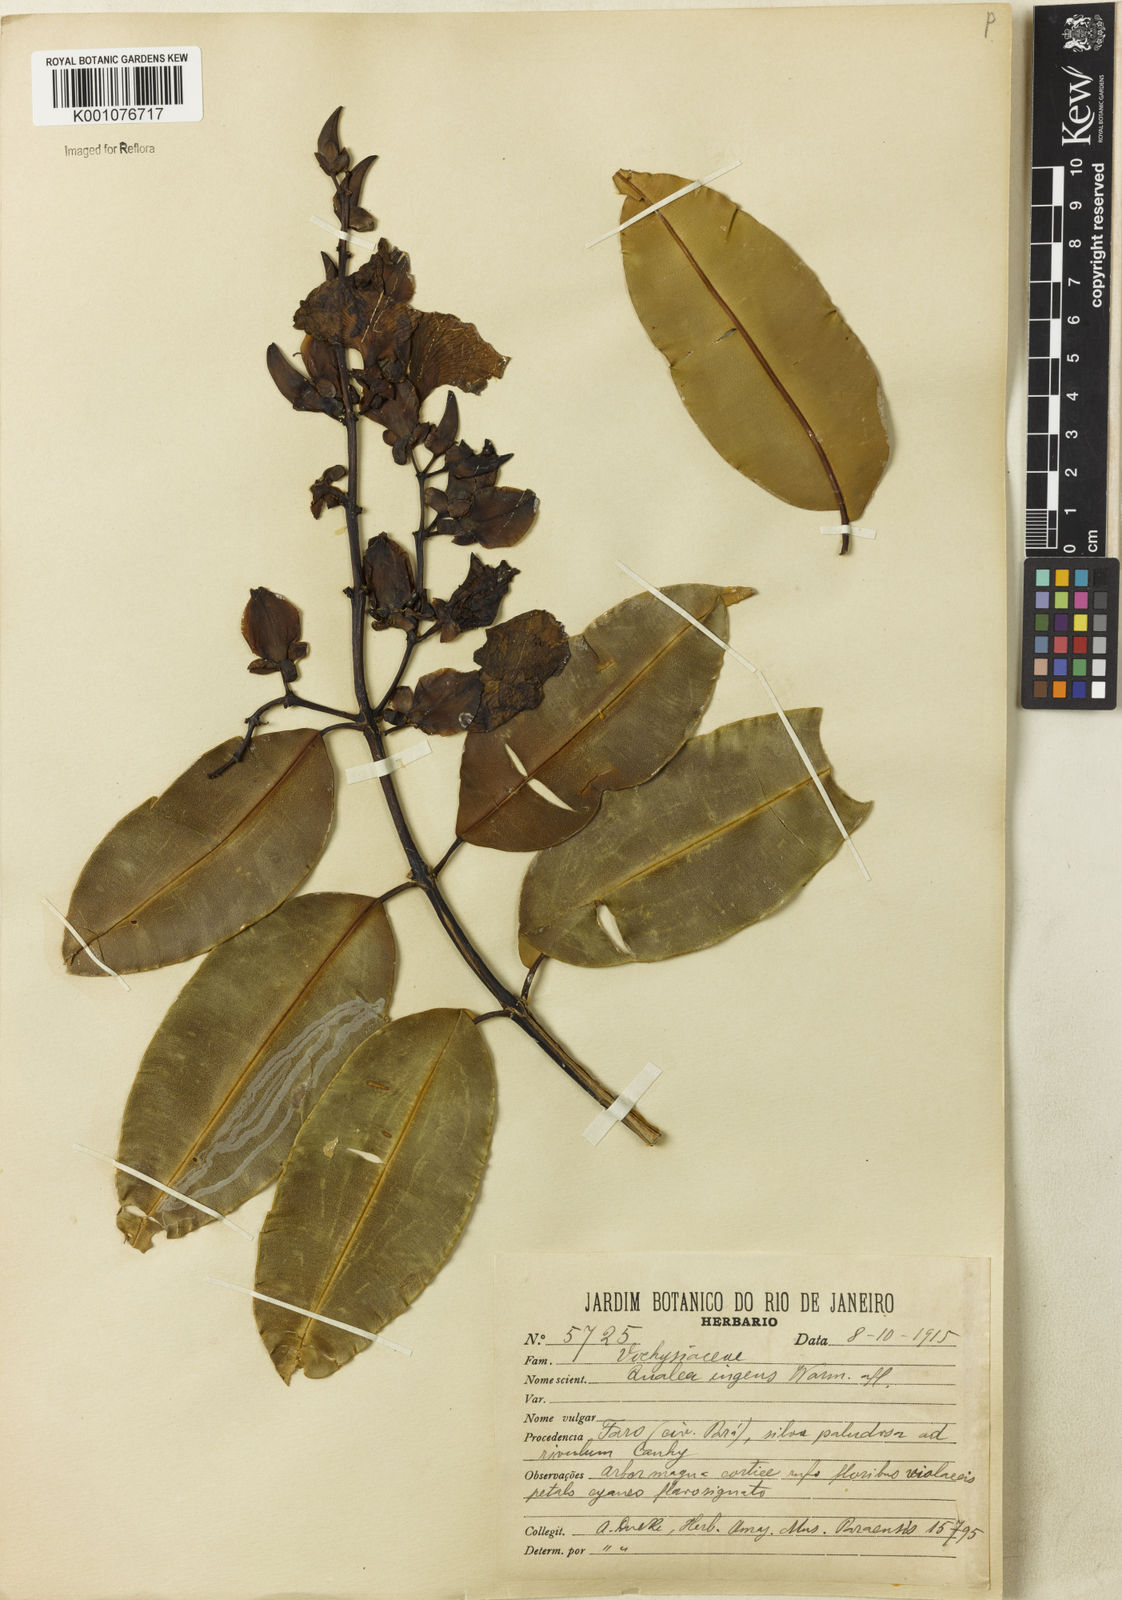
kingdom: Plantae
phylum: Tracheophyta
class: Magnoliopsida
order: Myrtales
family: Vochysiaceae
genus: Qualea
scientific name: Qualea ingens
